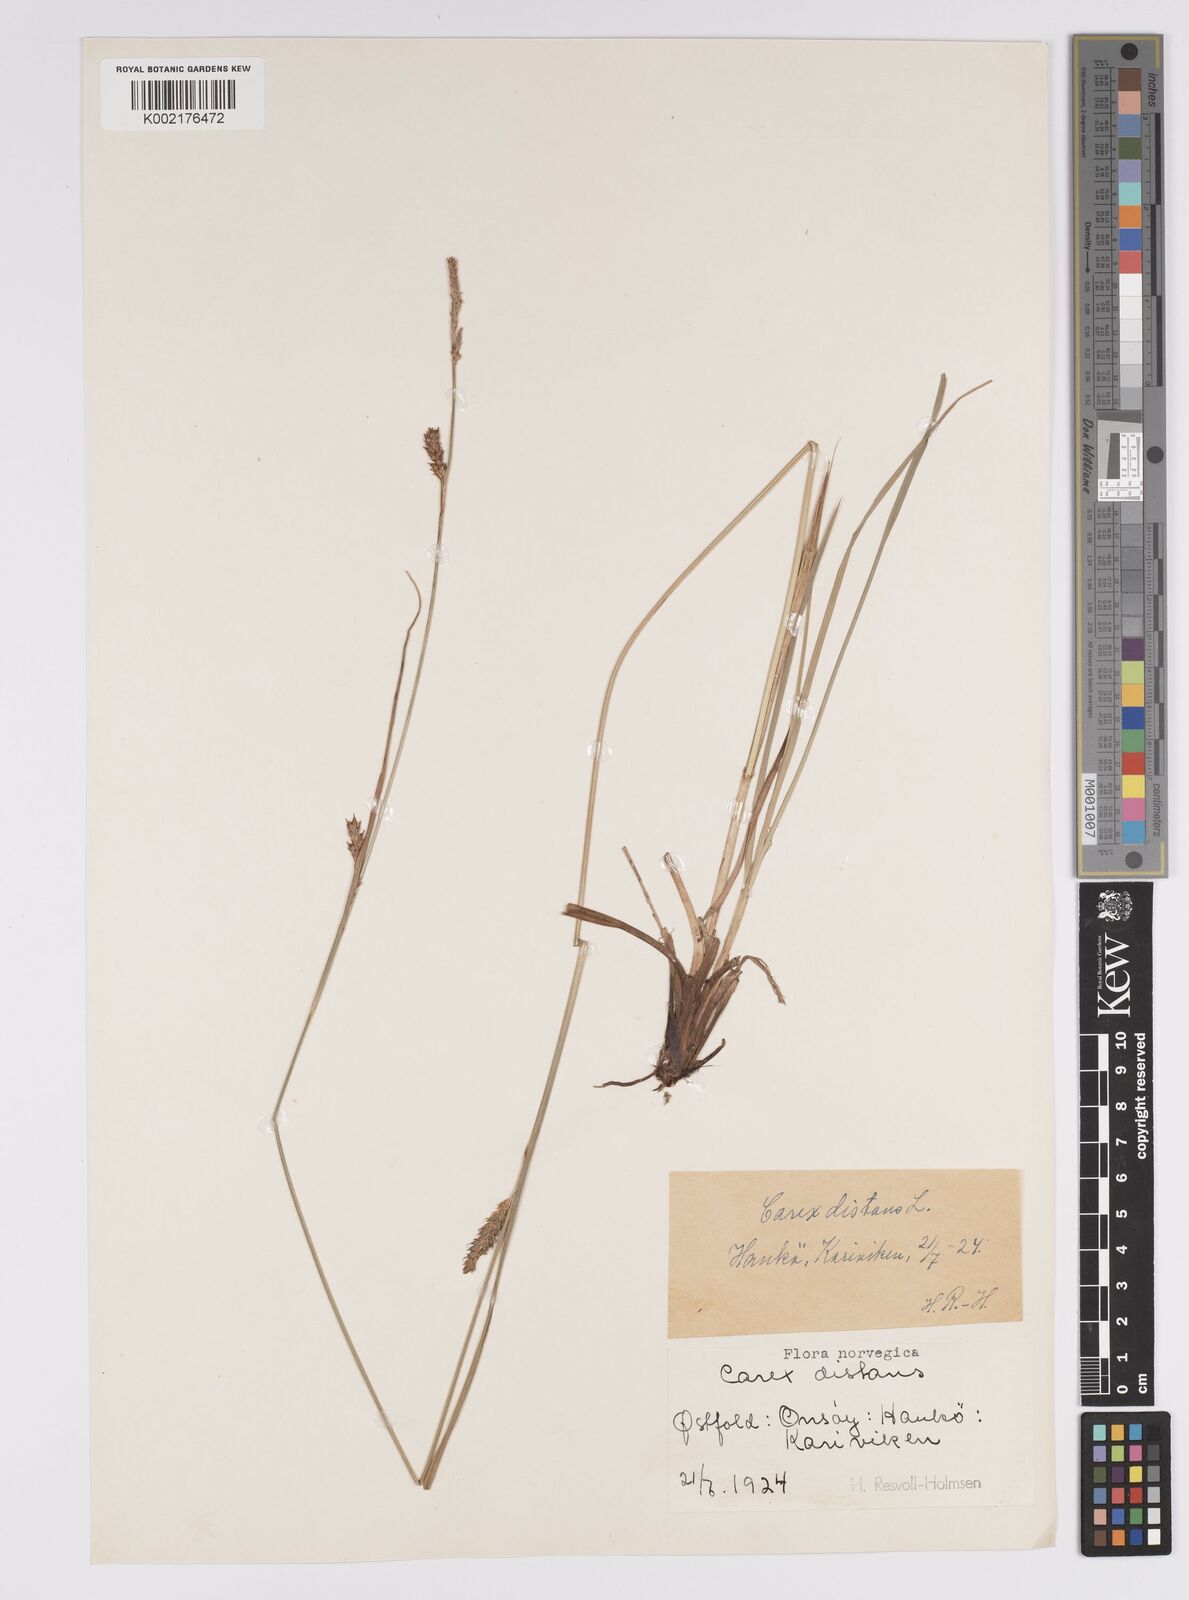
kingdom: Plantae
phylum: Tracheophyta
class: Liliopsida
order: Poales
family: Cyperaceae
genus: Carex
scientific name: Carex distans
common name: Distant sedge
